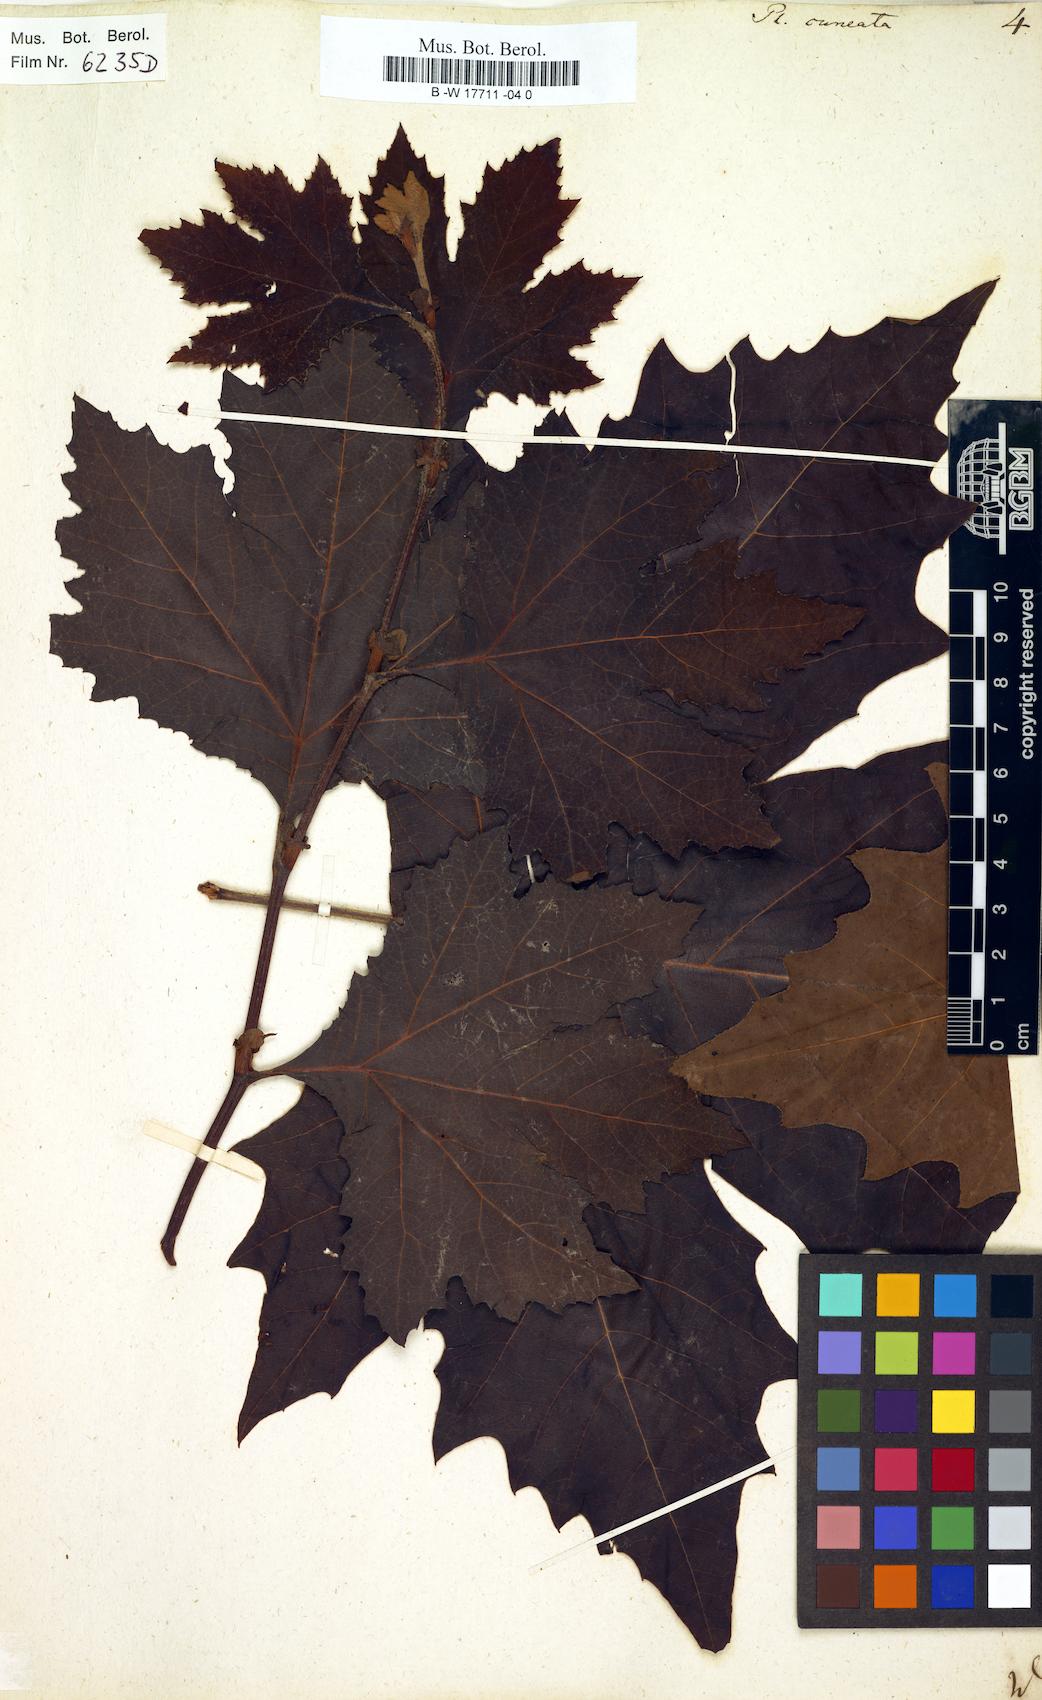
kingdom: Plantae
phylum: Tracheophyta
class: Magnoliopsida
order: Proteales
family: Platanaceae
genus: Platanus
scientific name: Platanus
